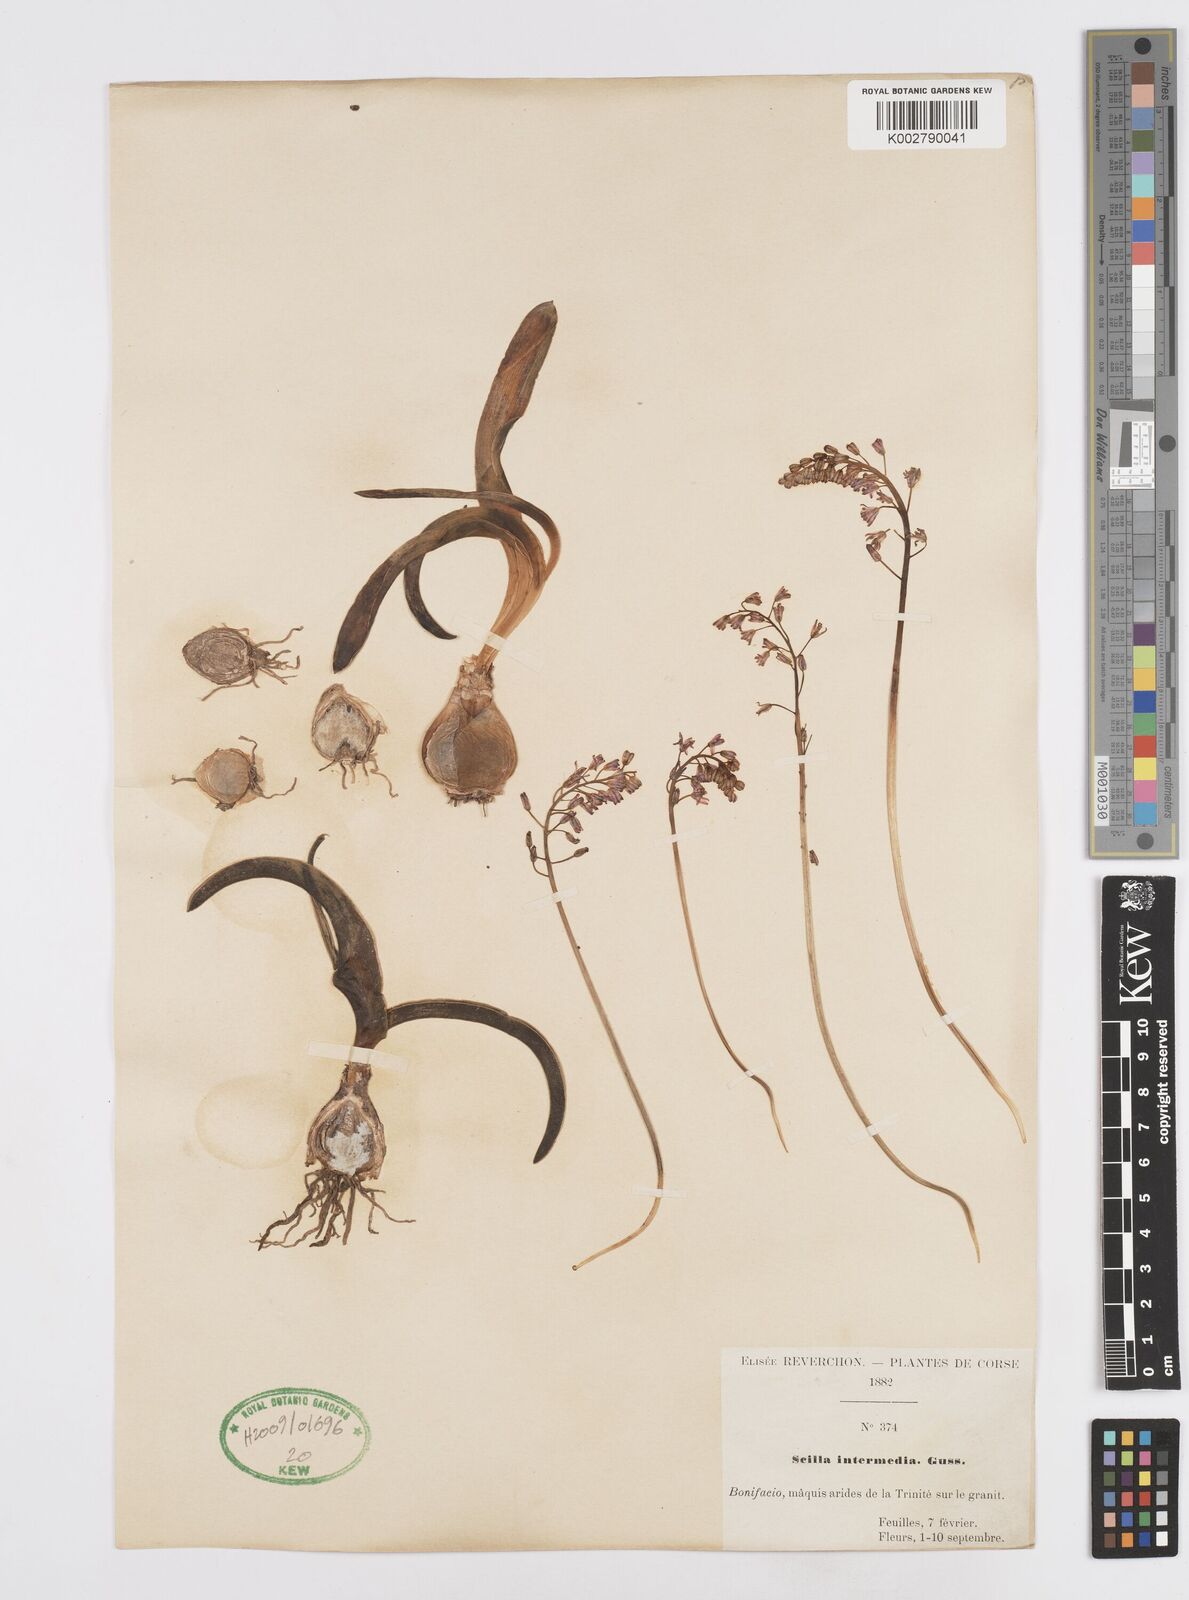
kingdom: Plantae
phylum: Tracheophyta
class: Liliopsida
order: Asparagales
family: Asparagaceae
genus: Prospero
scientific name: Prospero obtusifolium
